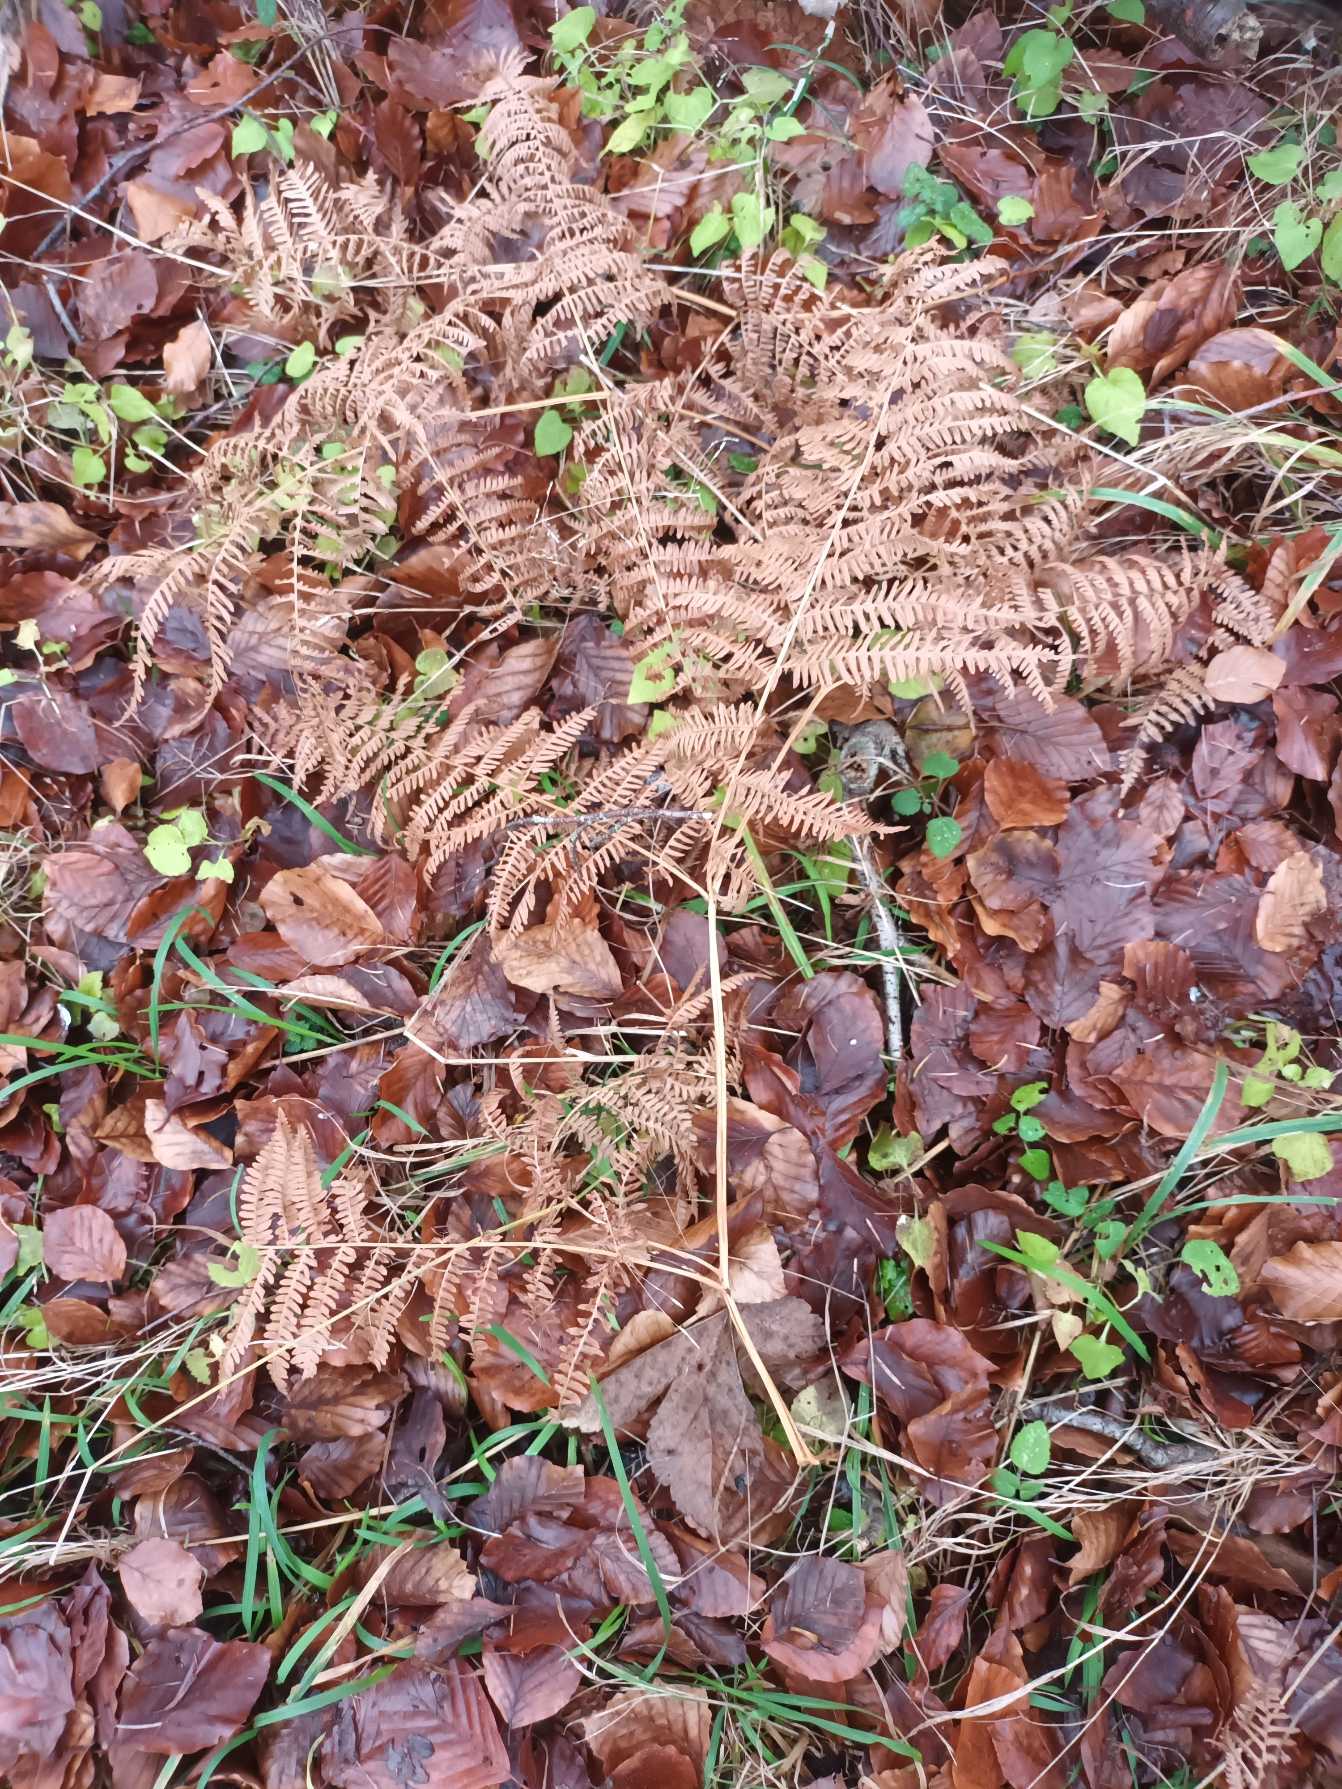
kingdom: Plantae
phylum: Tracheophyta
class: Polypodiopsida
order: Polypodiales
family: Dennstaedtiaceae
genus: Pteridium
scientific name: Pteridium aquilinum
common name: Ørnebregne
